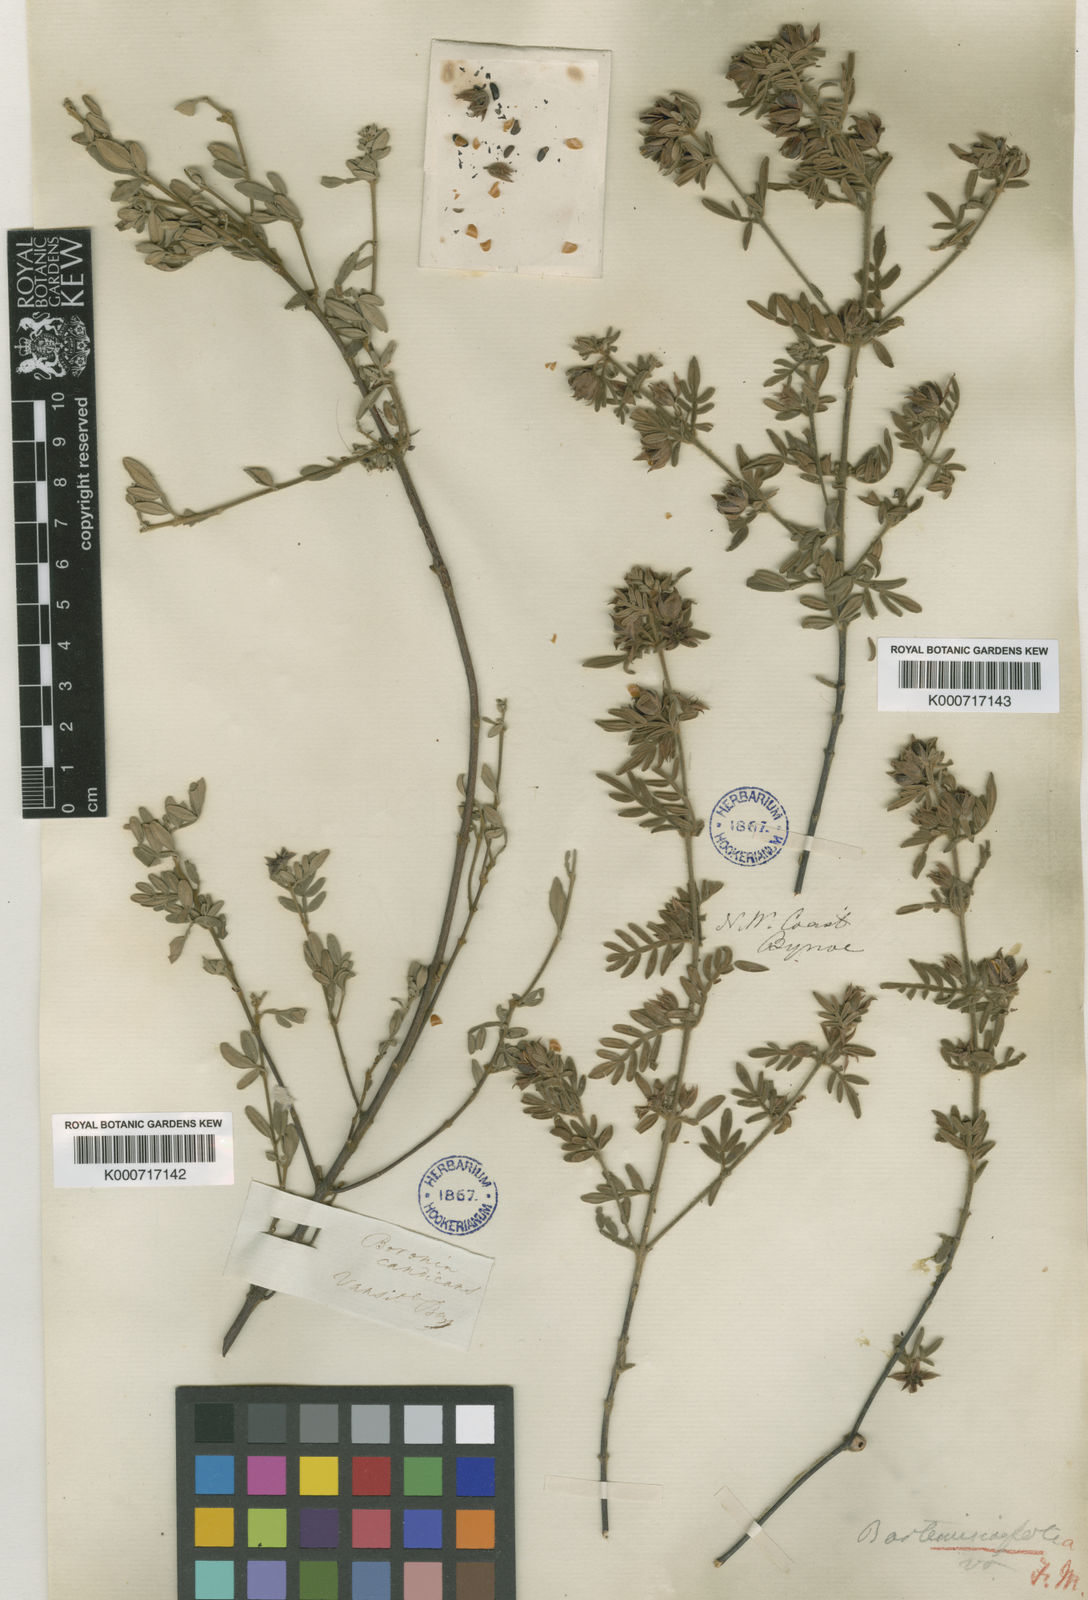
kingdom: Plantae
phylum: Tracheophyta
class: Magnoliopsida
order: Sapindales
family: Rutaceae
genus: Boronia
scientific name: Boronia filicifolia
